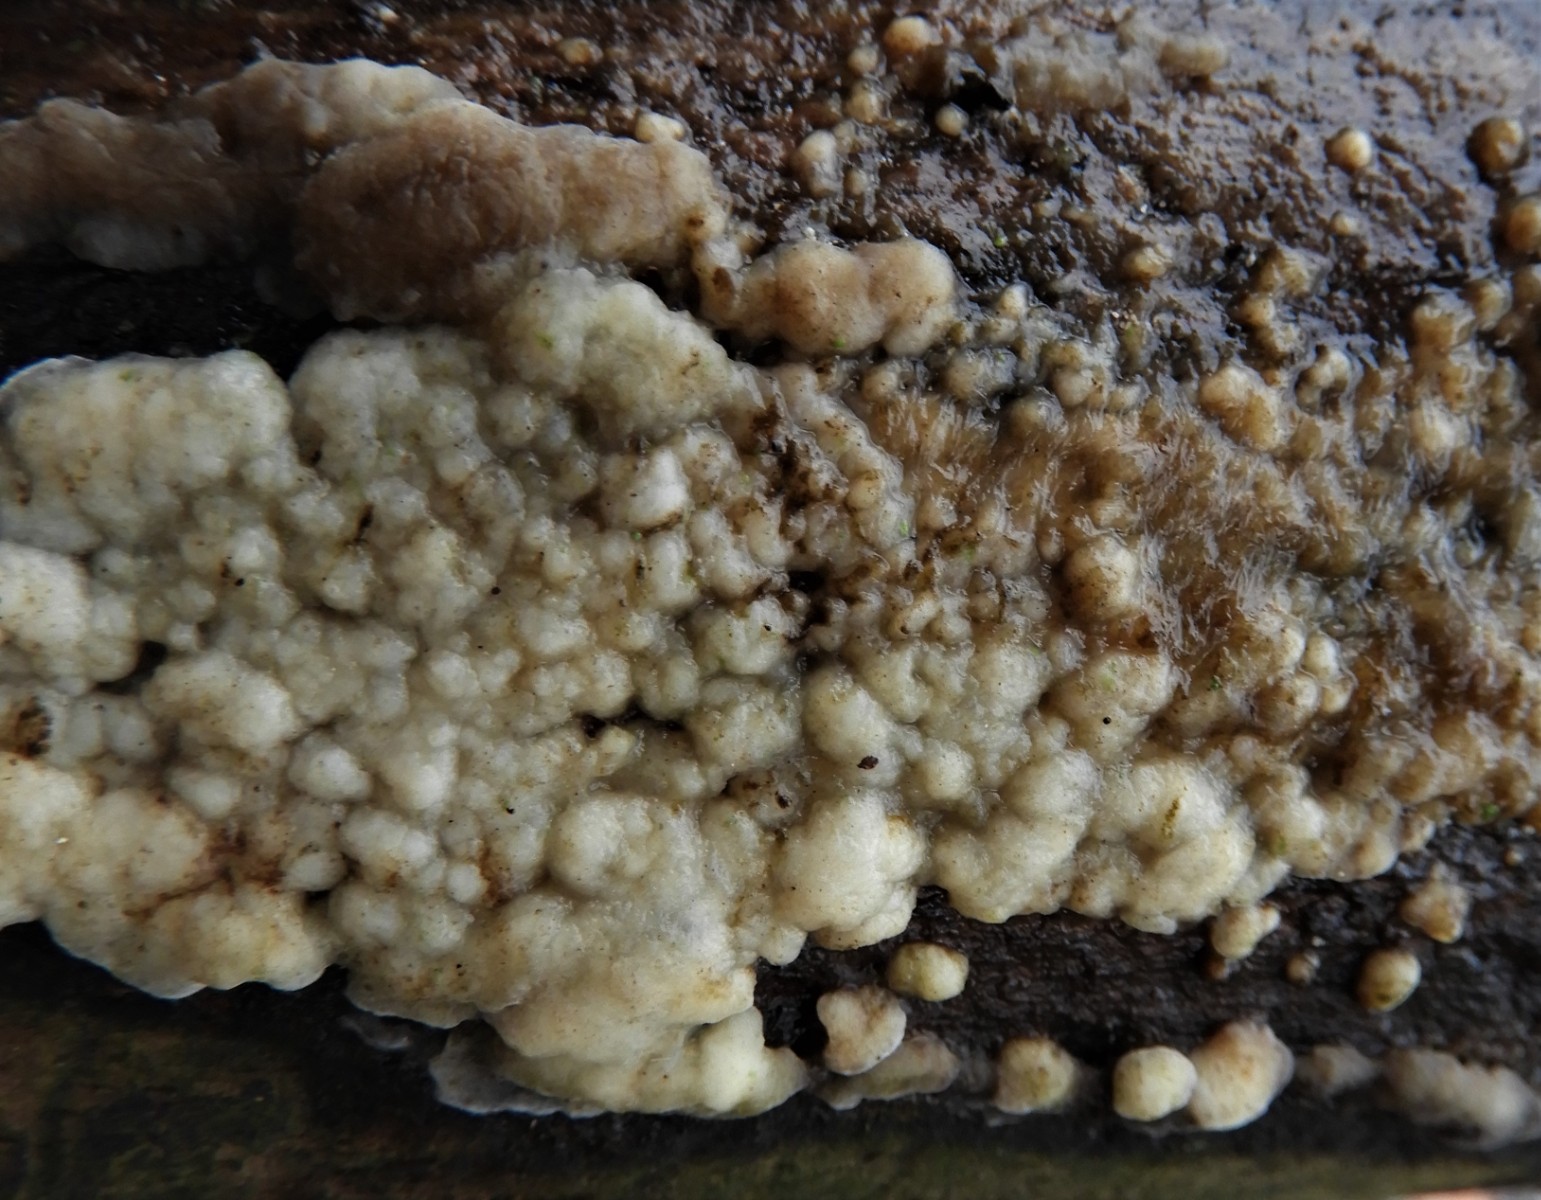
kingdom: Fungi
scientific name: Fungi
